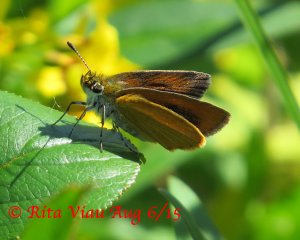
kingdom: Animalia
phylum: Arthropoda
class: Insecta
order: Lepidoptera
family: Hesperiidae
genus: Ancyloxypha
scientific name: Ancyloxypha numitor
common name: Least Skipper
